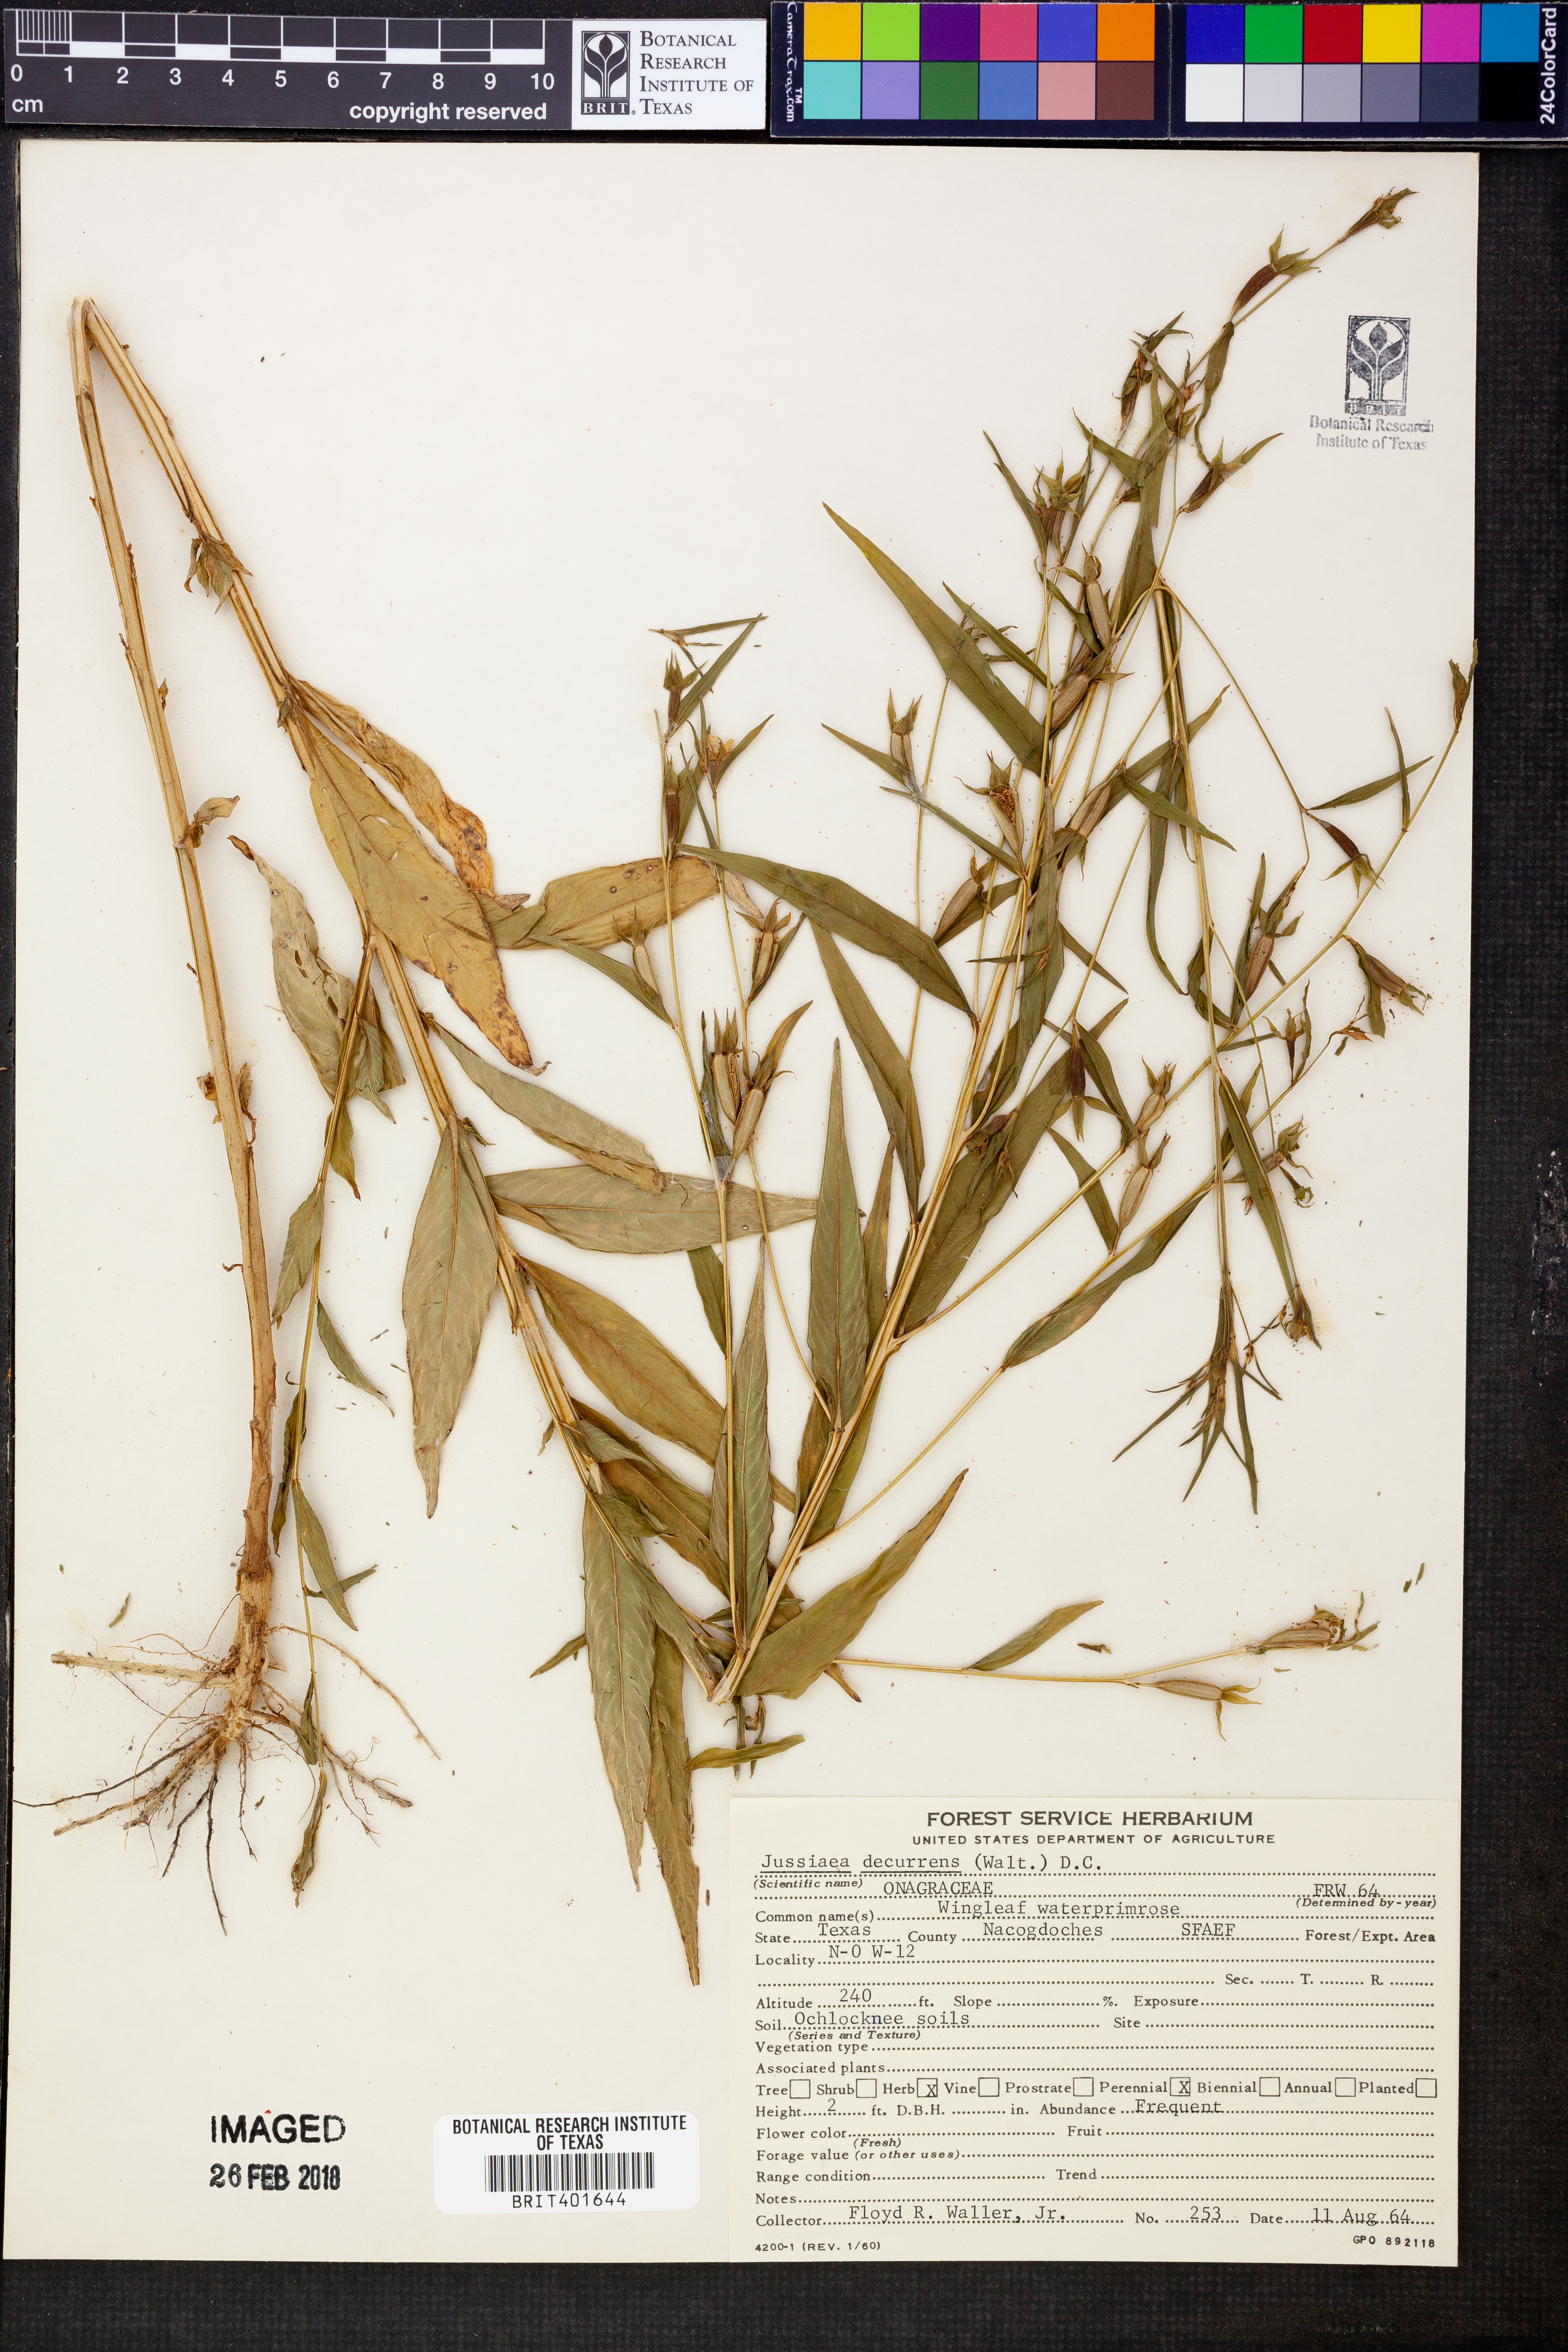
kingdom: Plantae
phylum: Tracheophyta
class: Magnoliopsida
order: Myrtales
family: Onagraceae
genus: Ludwigia
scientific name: Ludwigia decurrens
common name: Winged water-primrose
